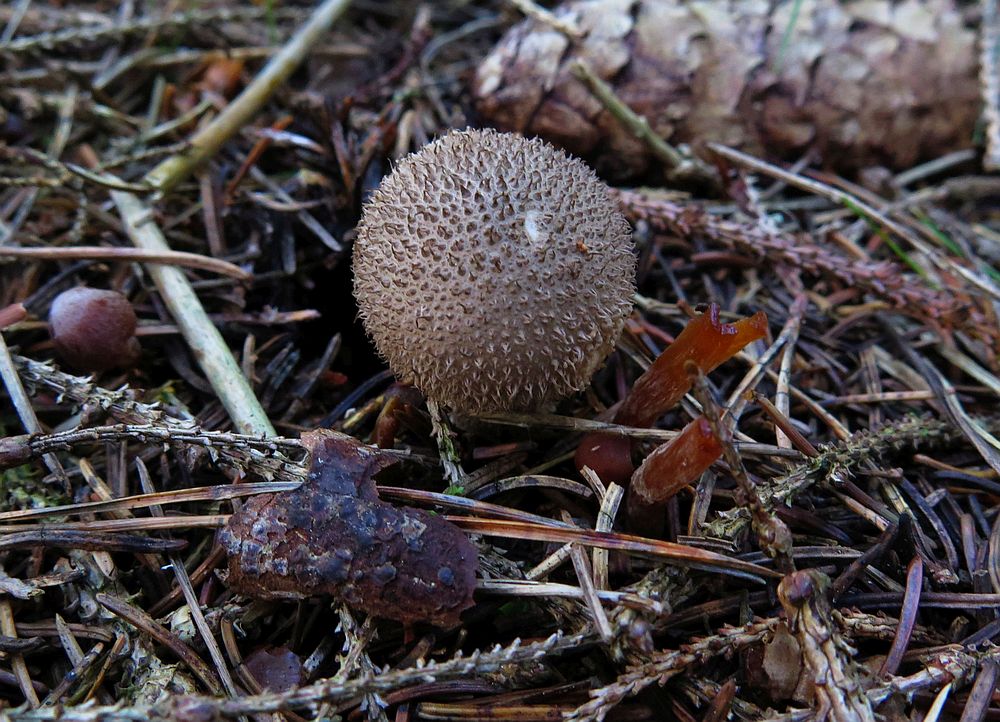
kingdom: Fungi
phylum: Basidiomycota
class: Agaricomycetes
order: Agaricales
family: Lycoperdaceae
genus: Lycoperdon
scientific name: Lycoperdon nigrescens
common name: sortagtig støvbold
